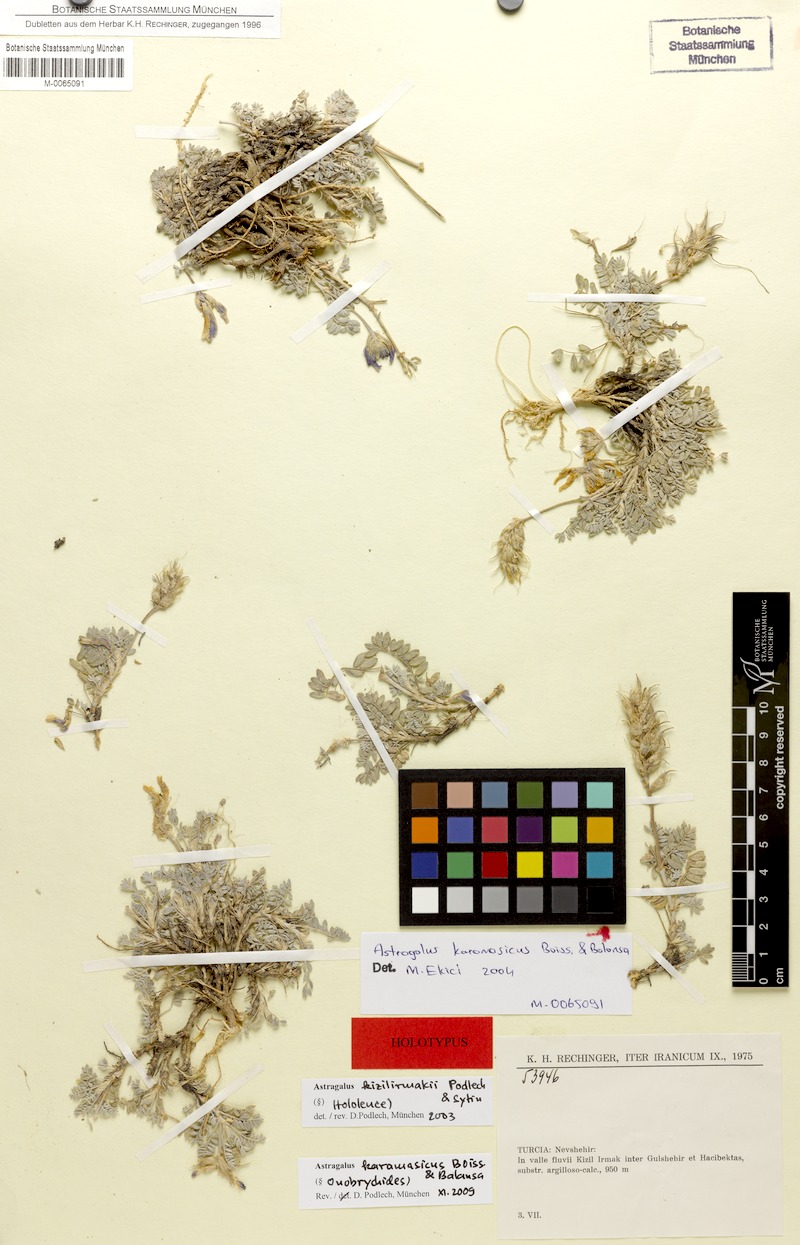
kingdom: Plantae
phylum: Tracheophyta
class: Magnoliopsida
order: Fabales
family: Fabaceae
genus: Astragalus
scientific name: Astragalus karamasicus
